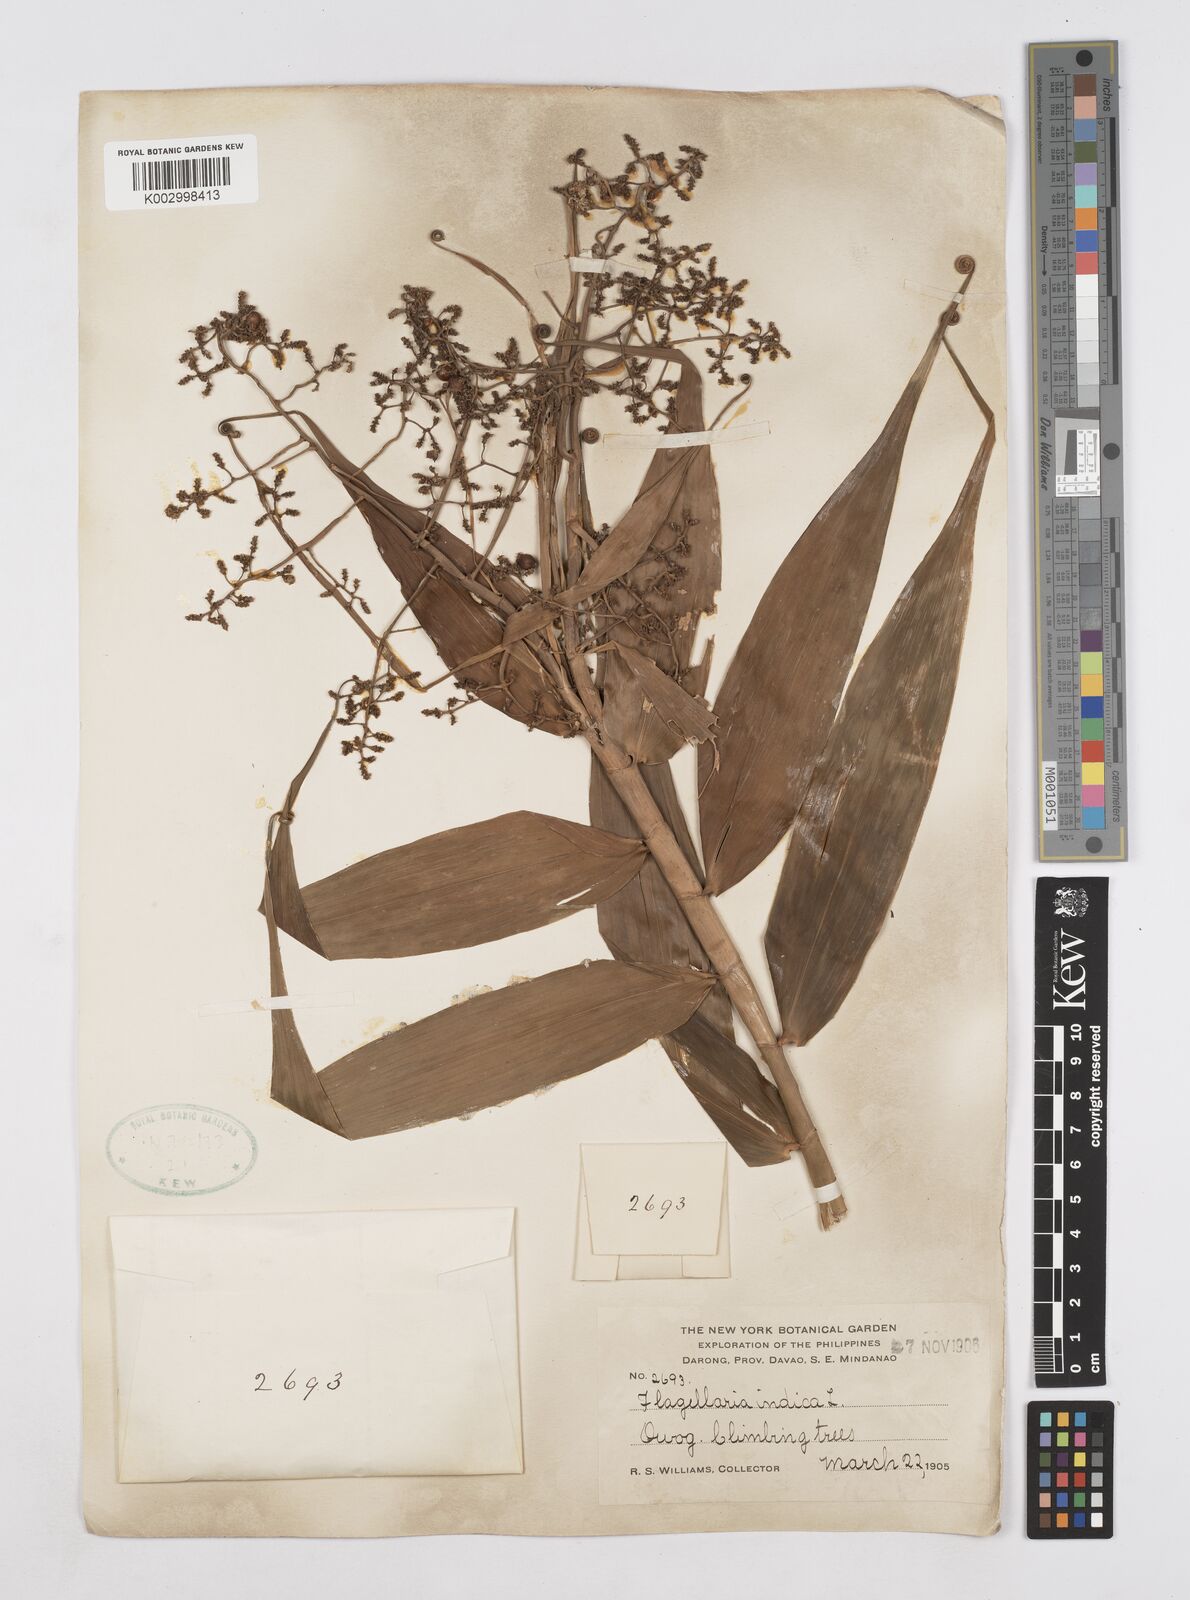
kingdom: Plantae
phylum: Tracheophyta
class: Liliopsida
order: Poales
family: Flagellariaceae
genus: Flagellaria
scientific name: Flagellaria indica
